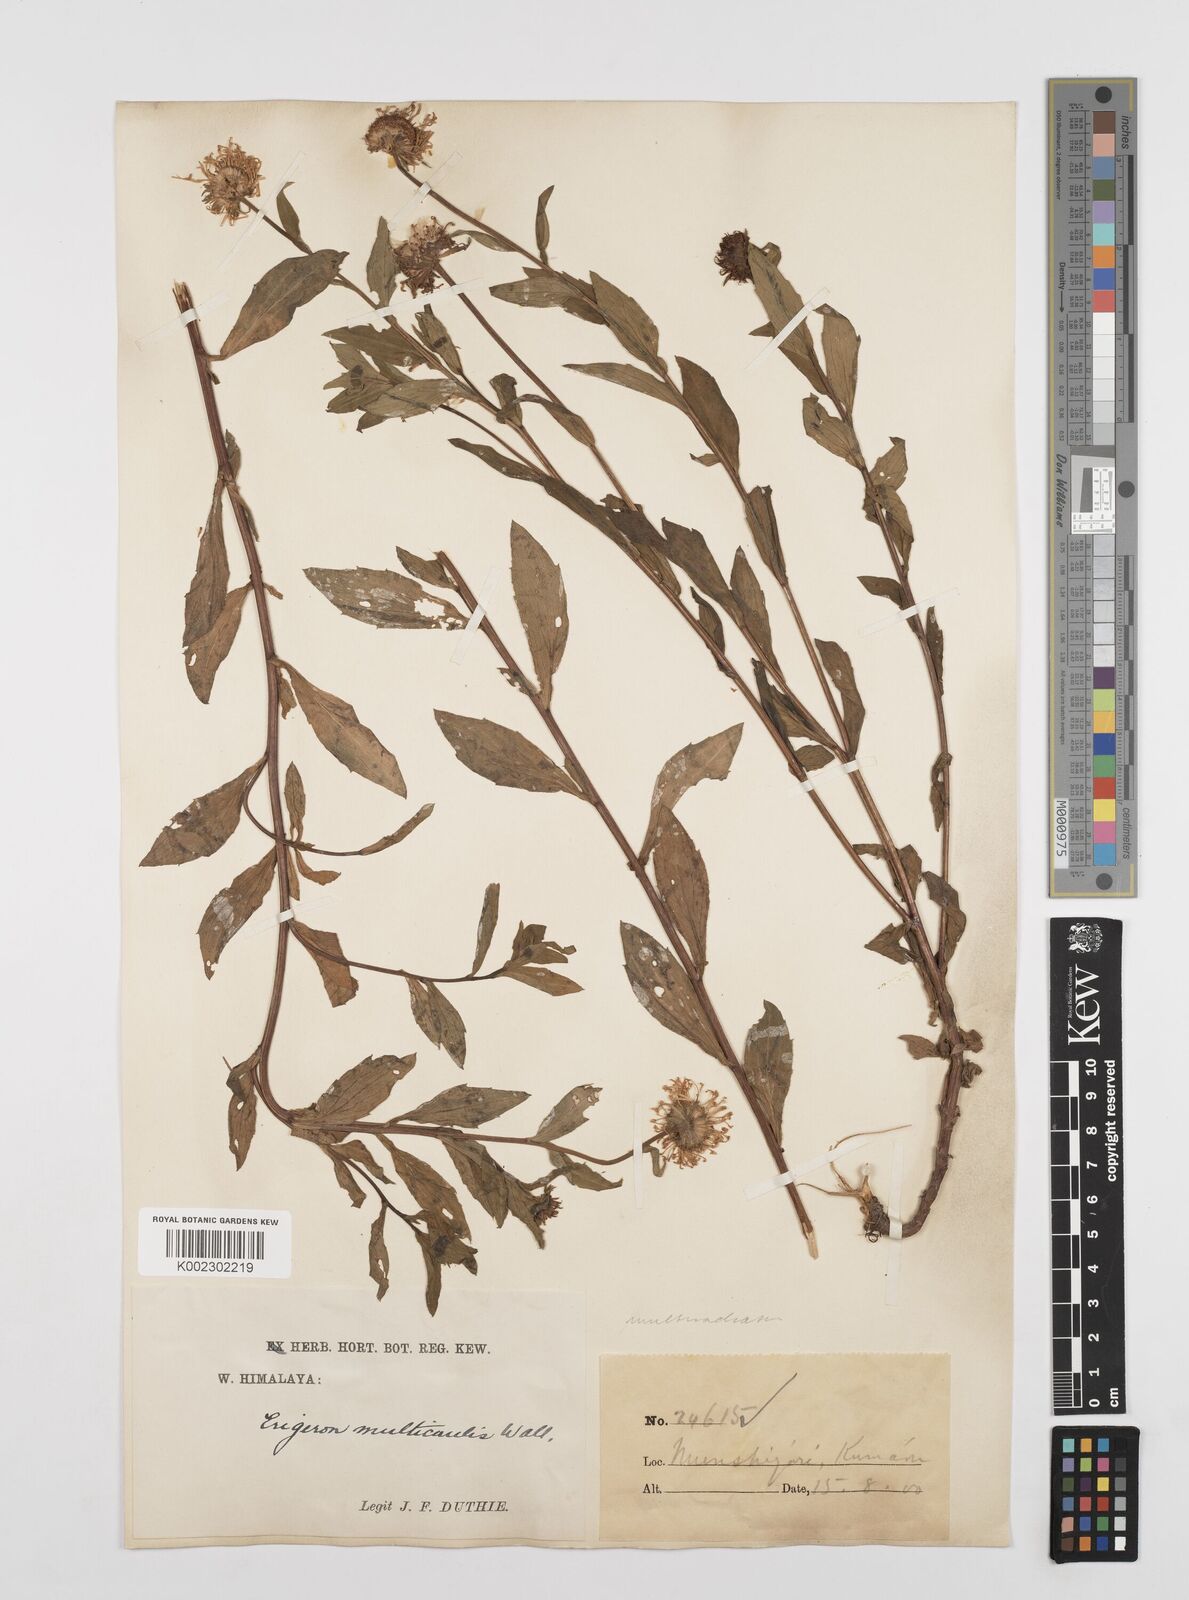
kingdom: Plantae
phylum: Tracheophyta
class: Magnoliopsida
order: Asterales
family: Asteraceae
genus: Erigeron
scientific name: Erigeron acris
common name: Blue fleabane
